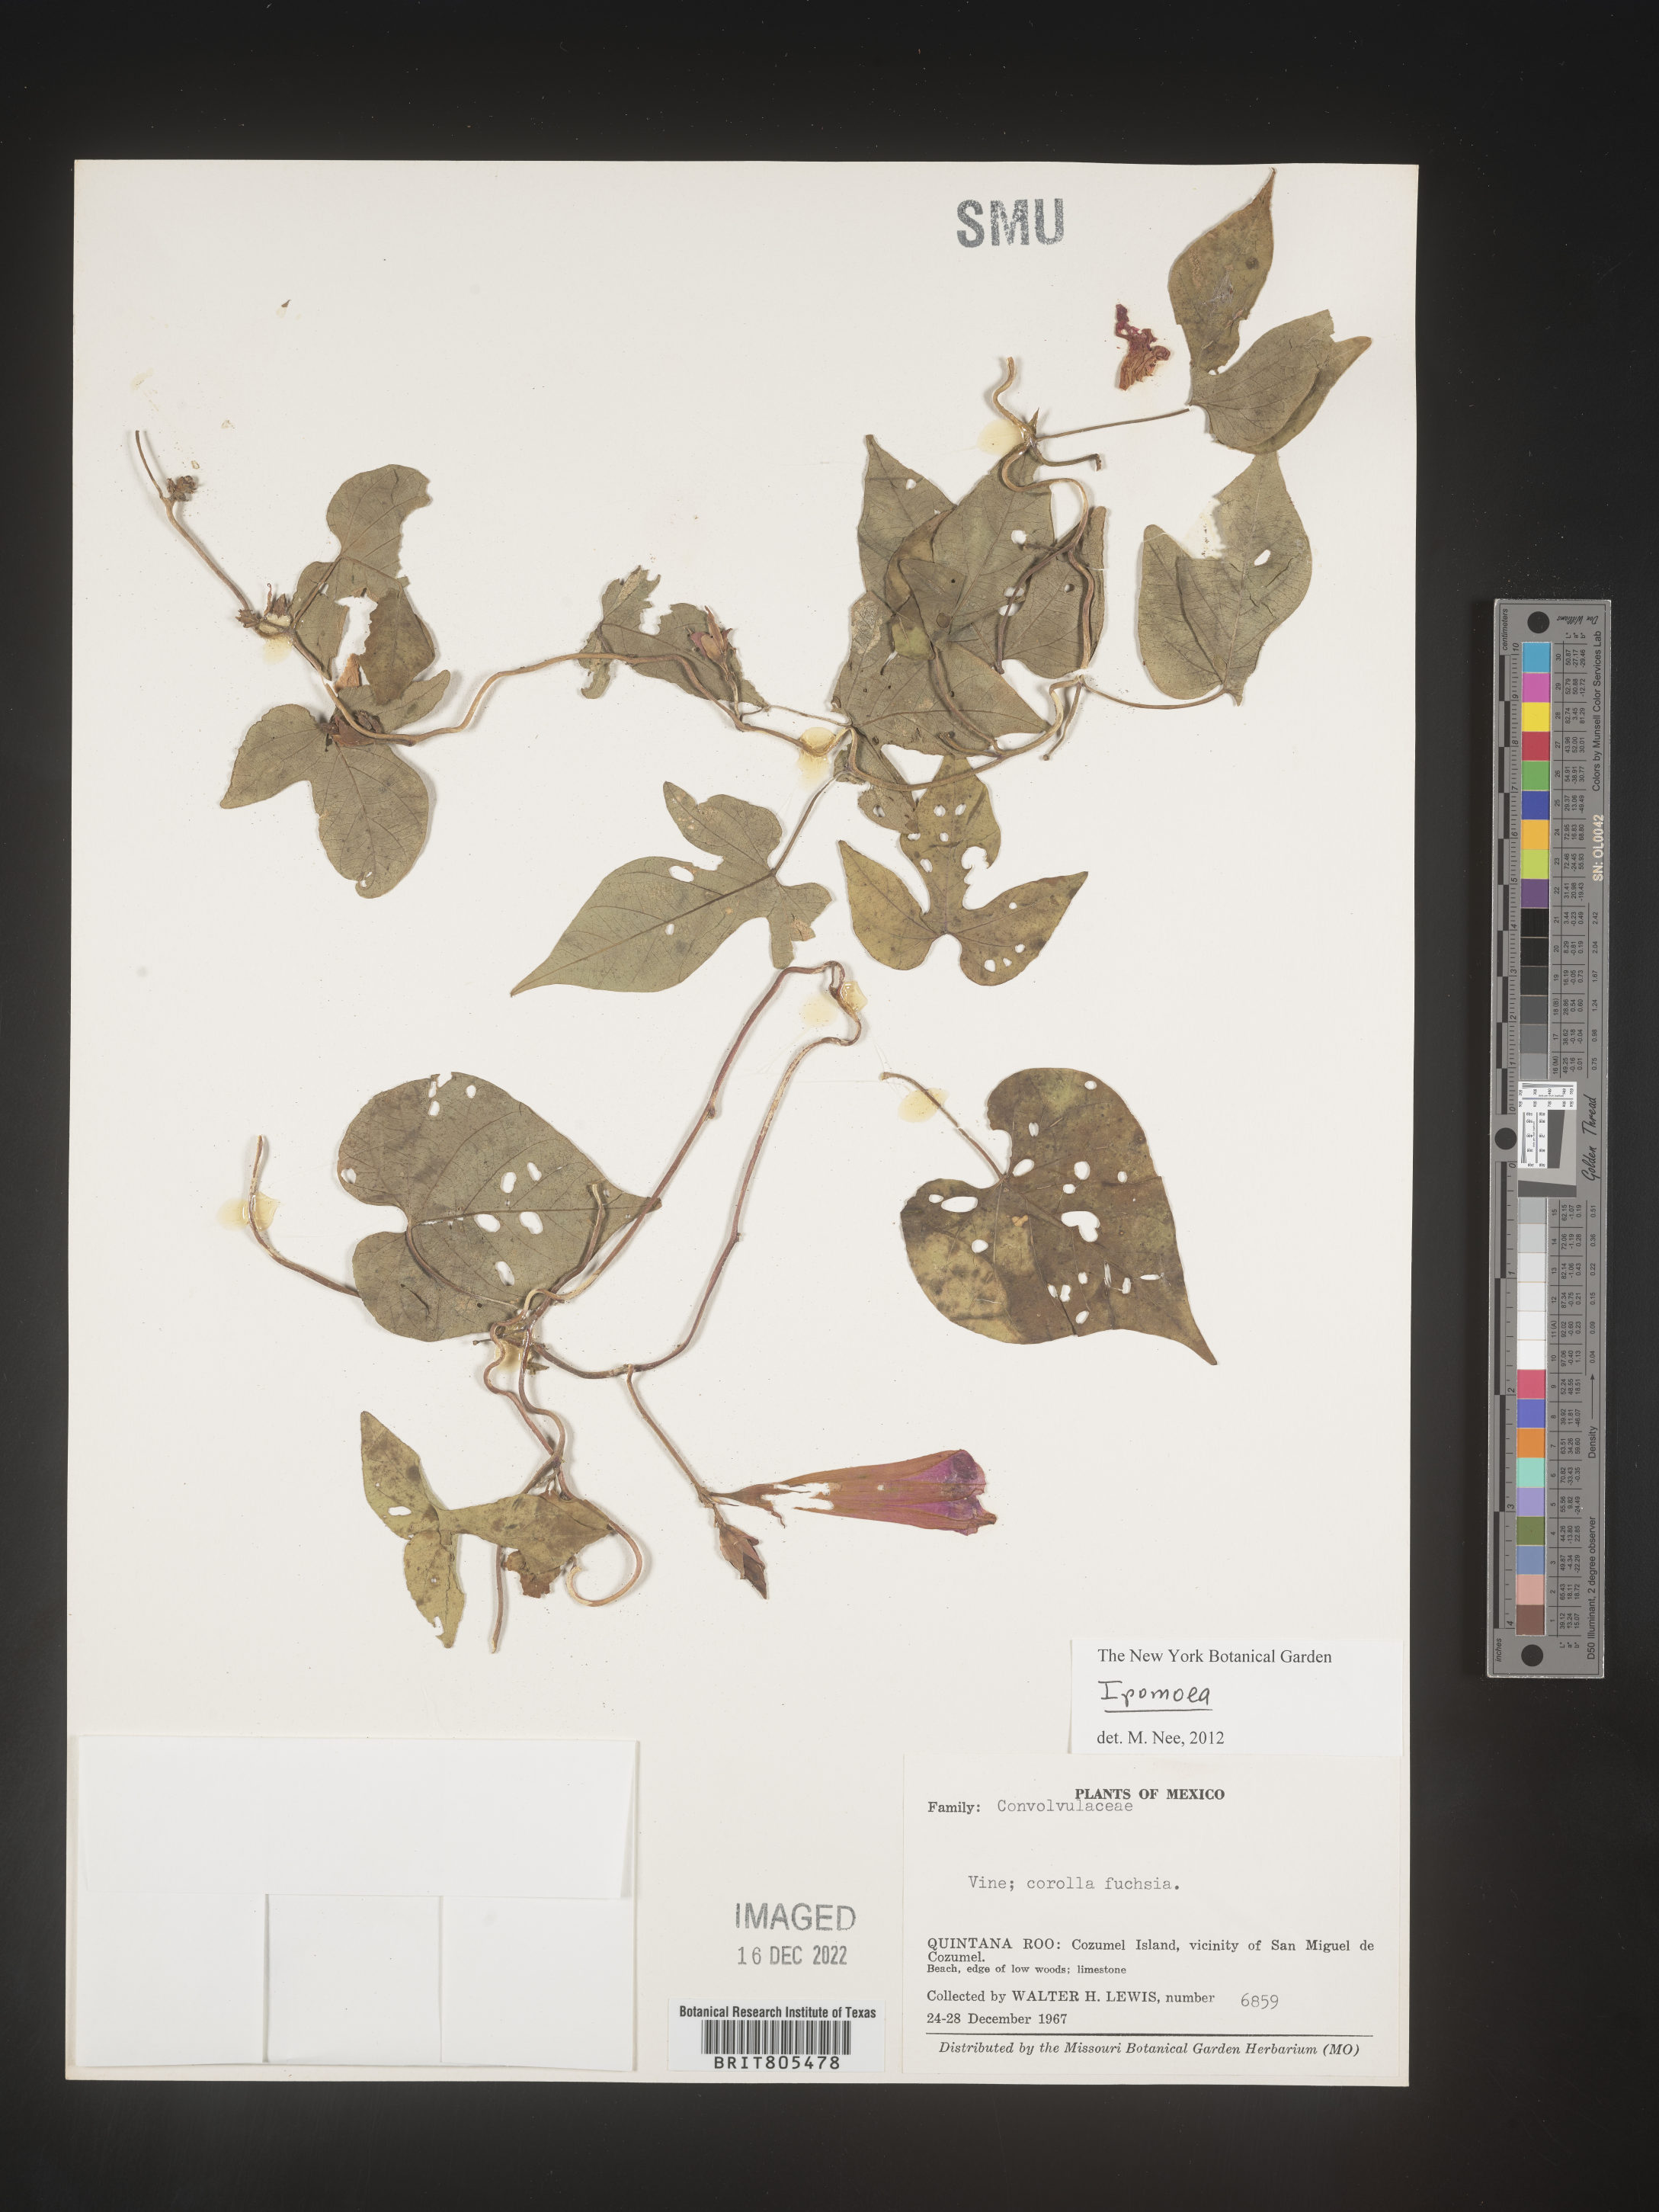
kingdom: Plantae
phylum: Tracheophyta
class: Magnoliopsida
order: Solanales
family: Convolvulaceae
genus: Ipomoea
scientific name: Ipomoea
